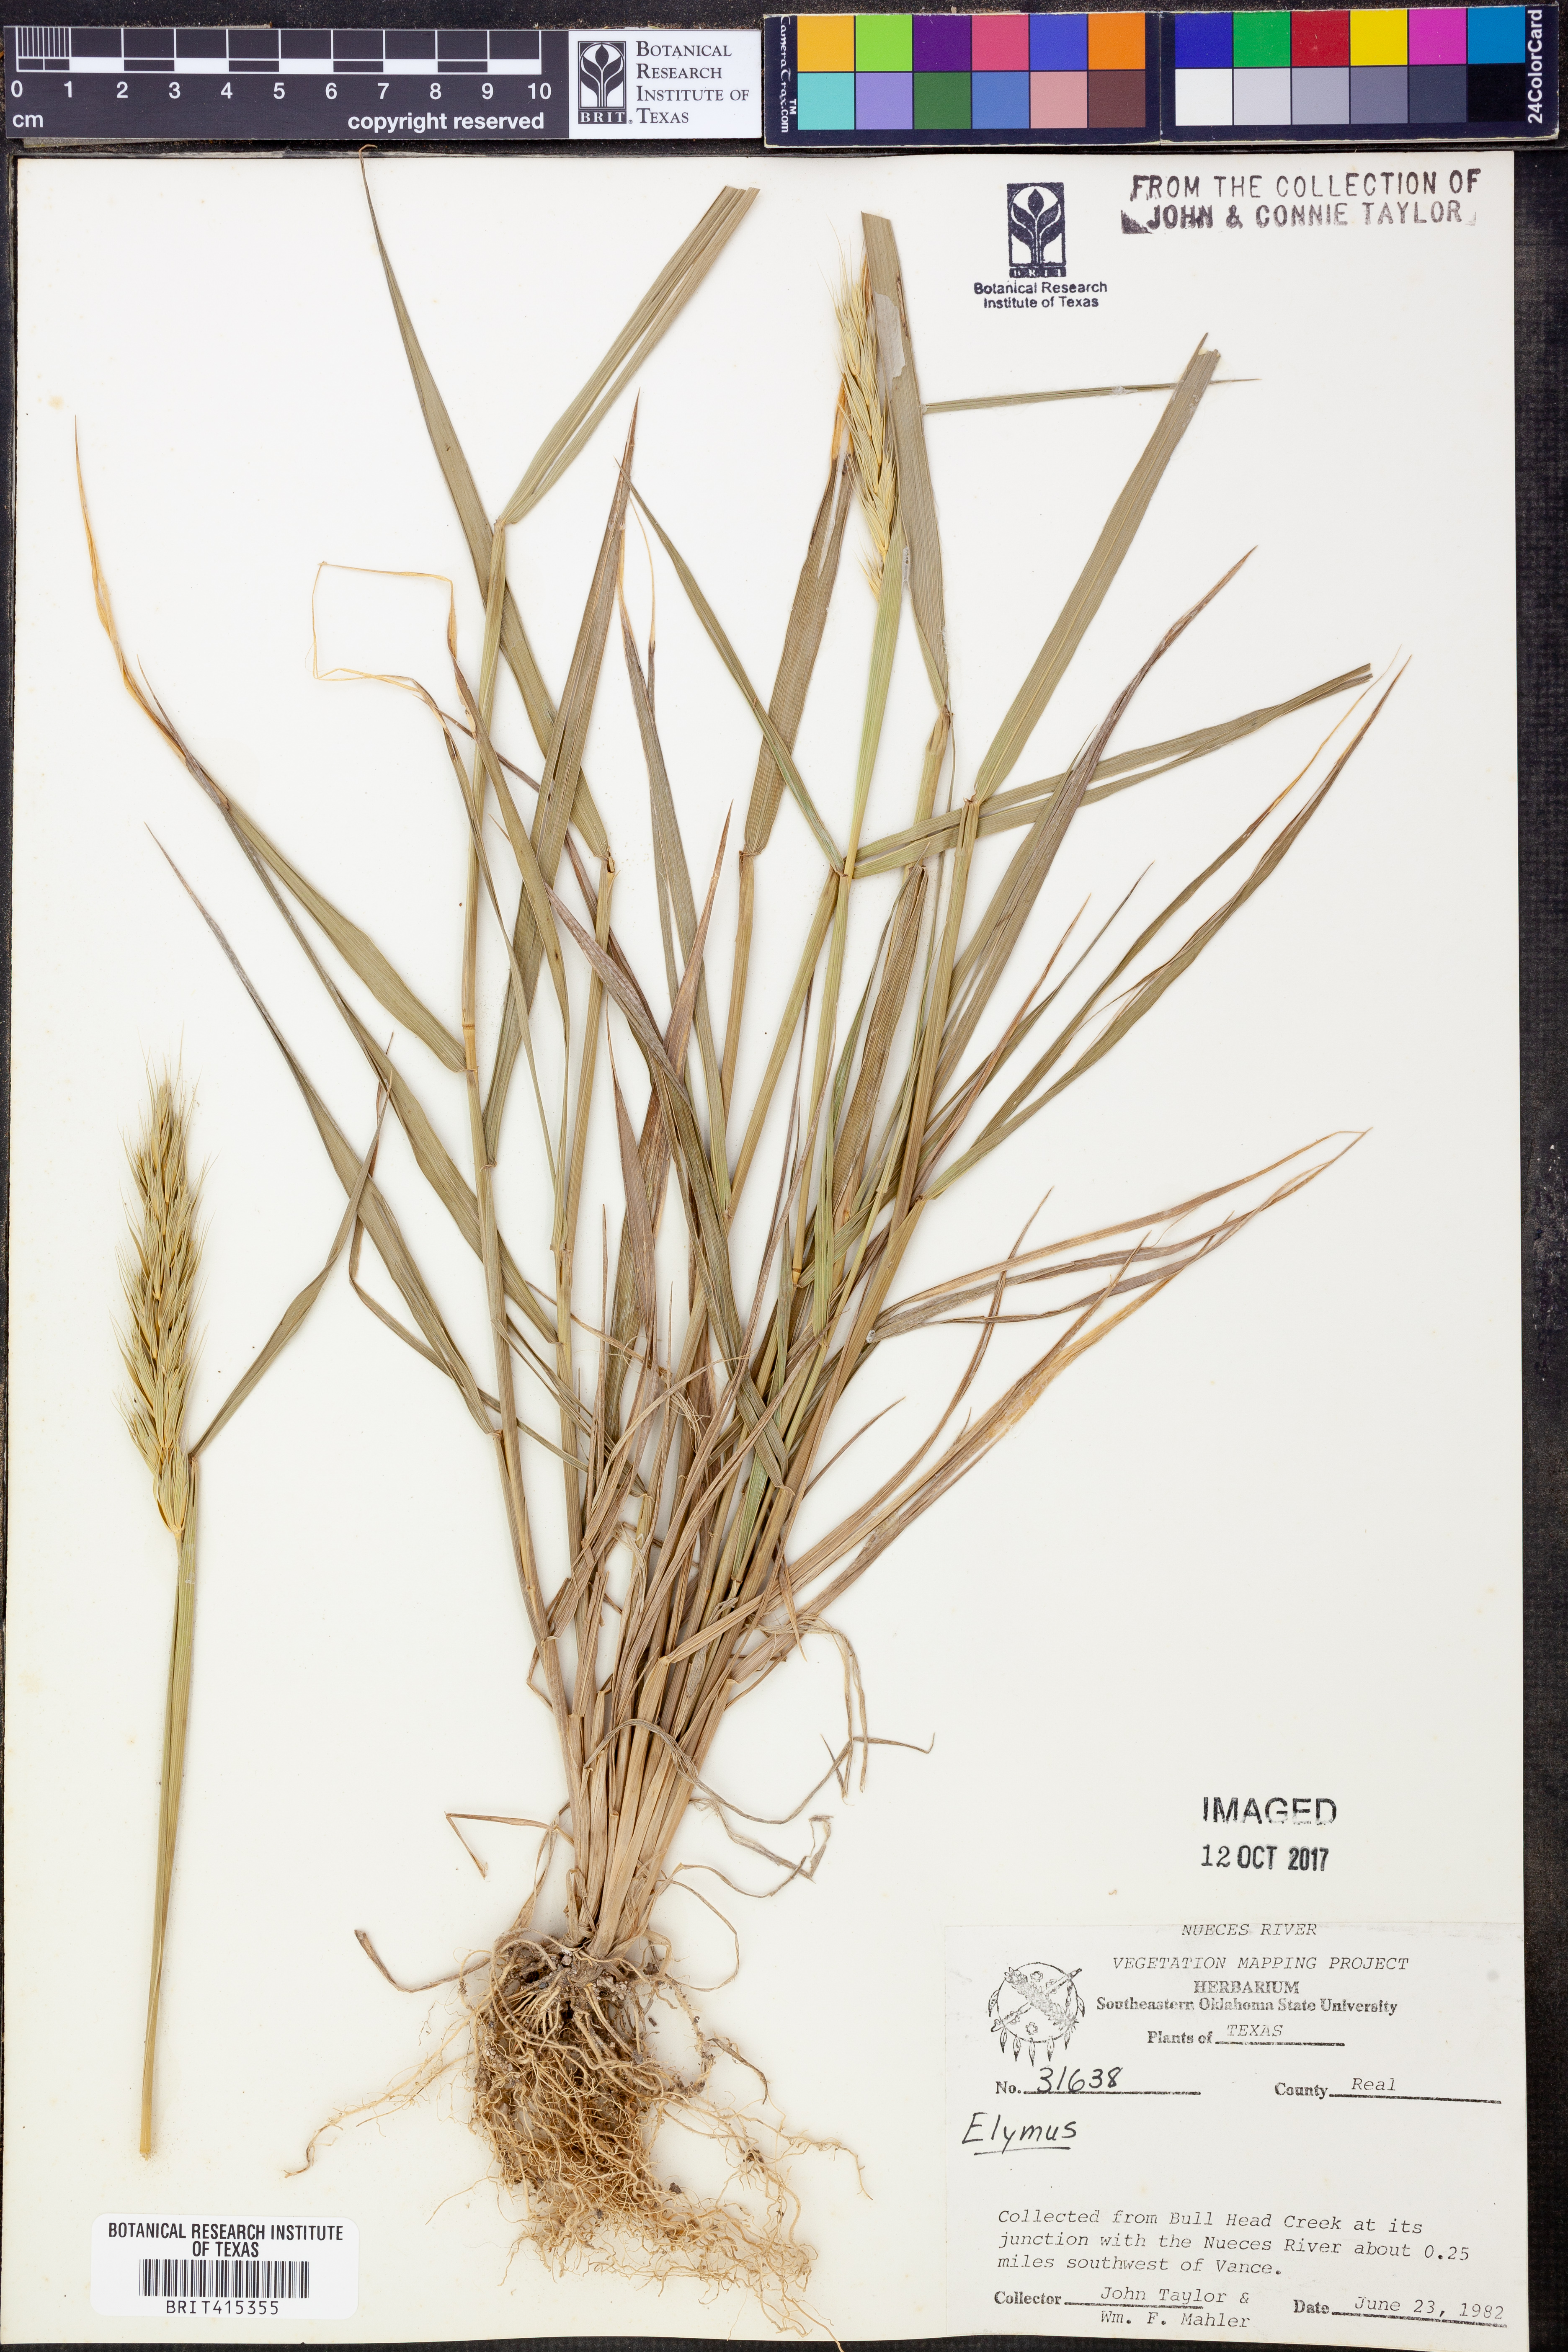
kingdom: Plantae
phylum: Tracheophyta
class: Liliopsida
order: Poales
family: Poaceae
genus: Elymus
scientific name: Elymus
